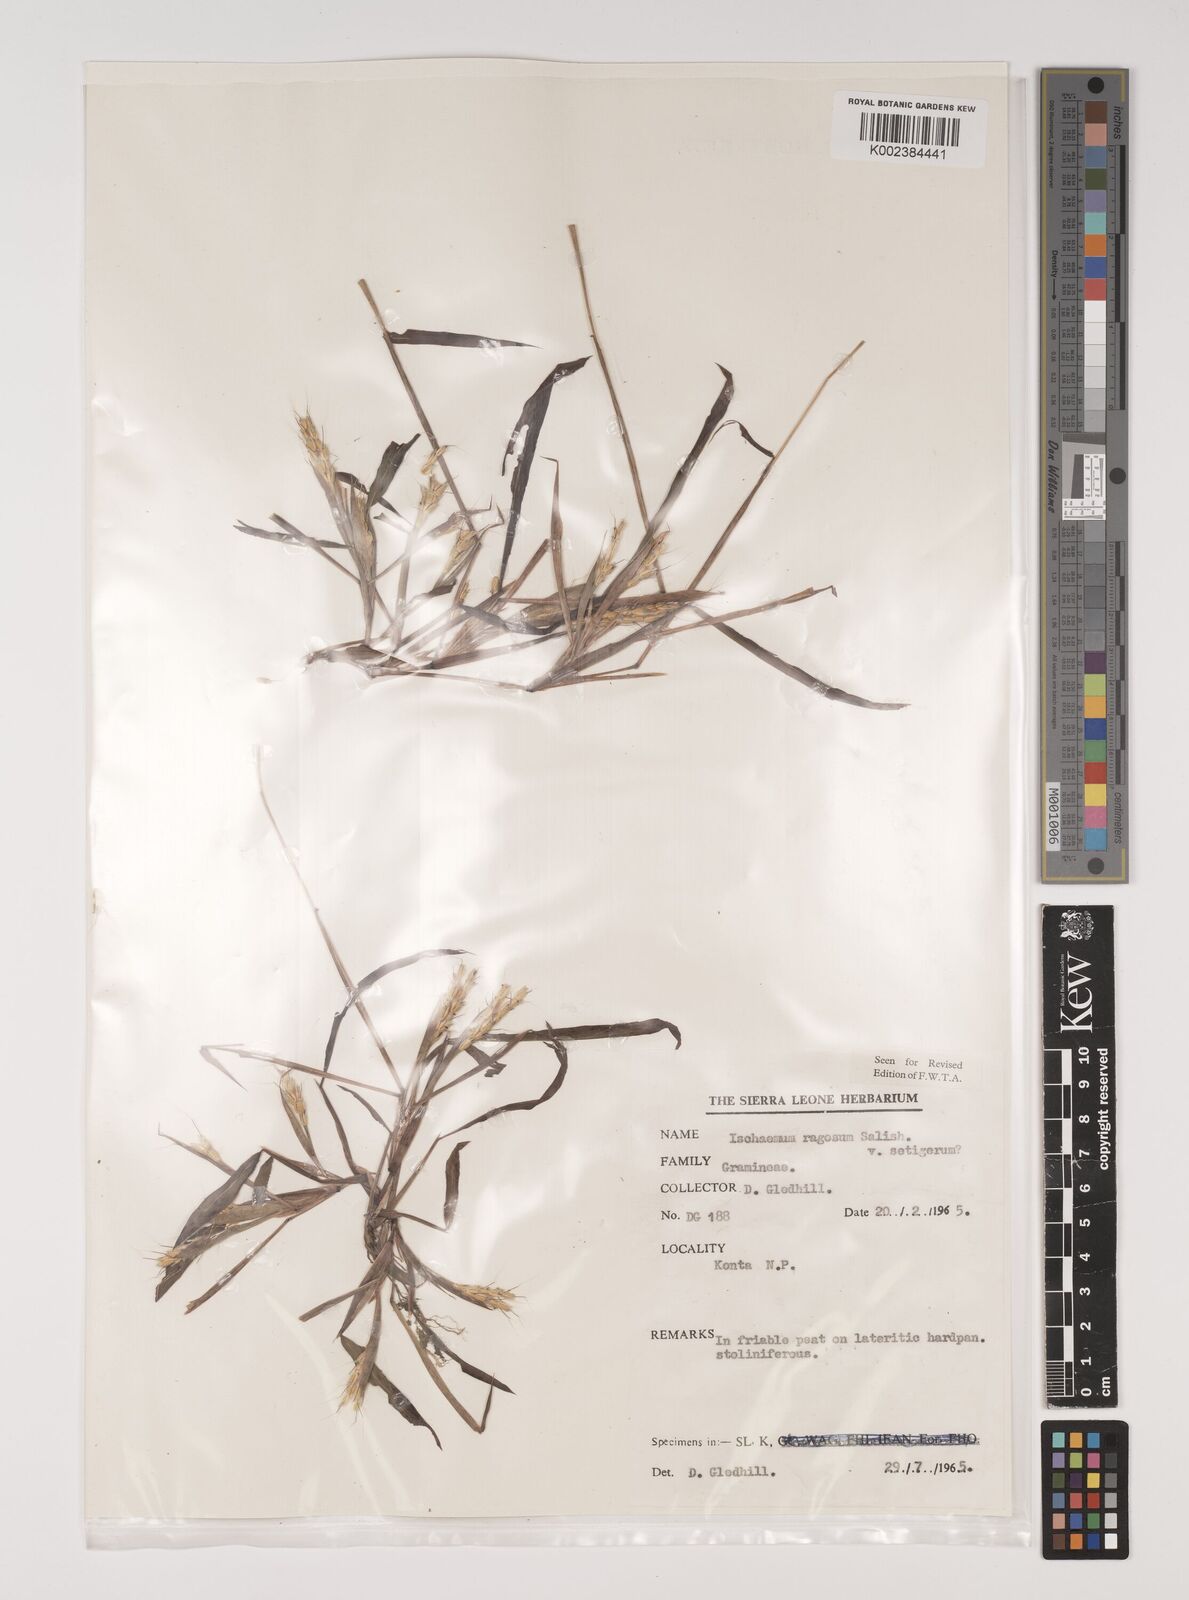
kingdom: Plantae
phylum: Tracheophyta
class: Liliopsida
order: Poales
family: Poaceae
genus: Ischaemum
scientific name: Ischaemum rugosum
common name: Saramatta grass
